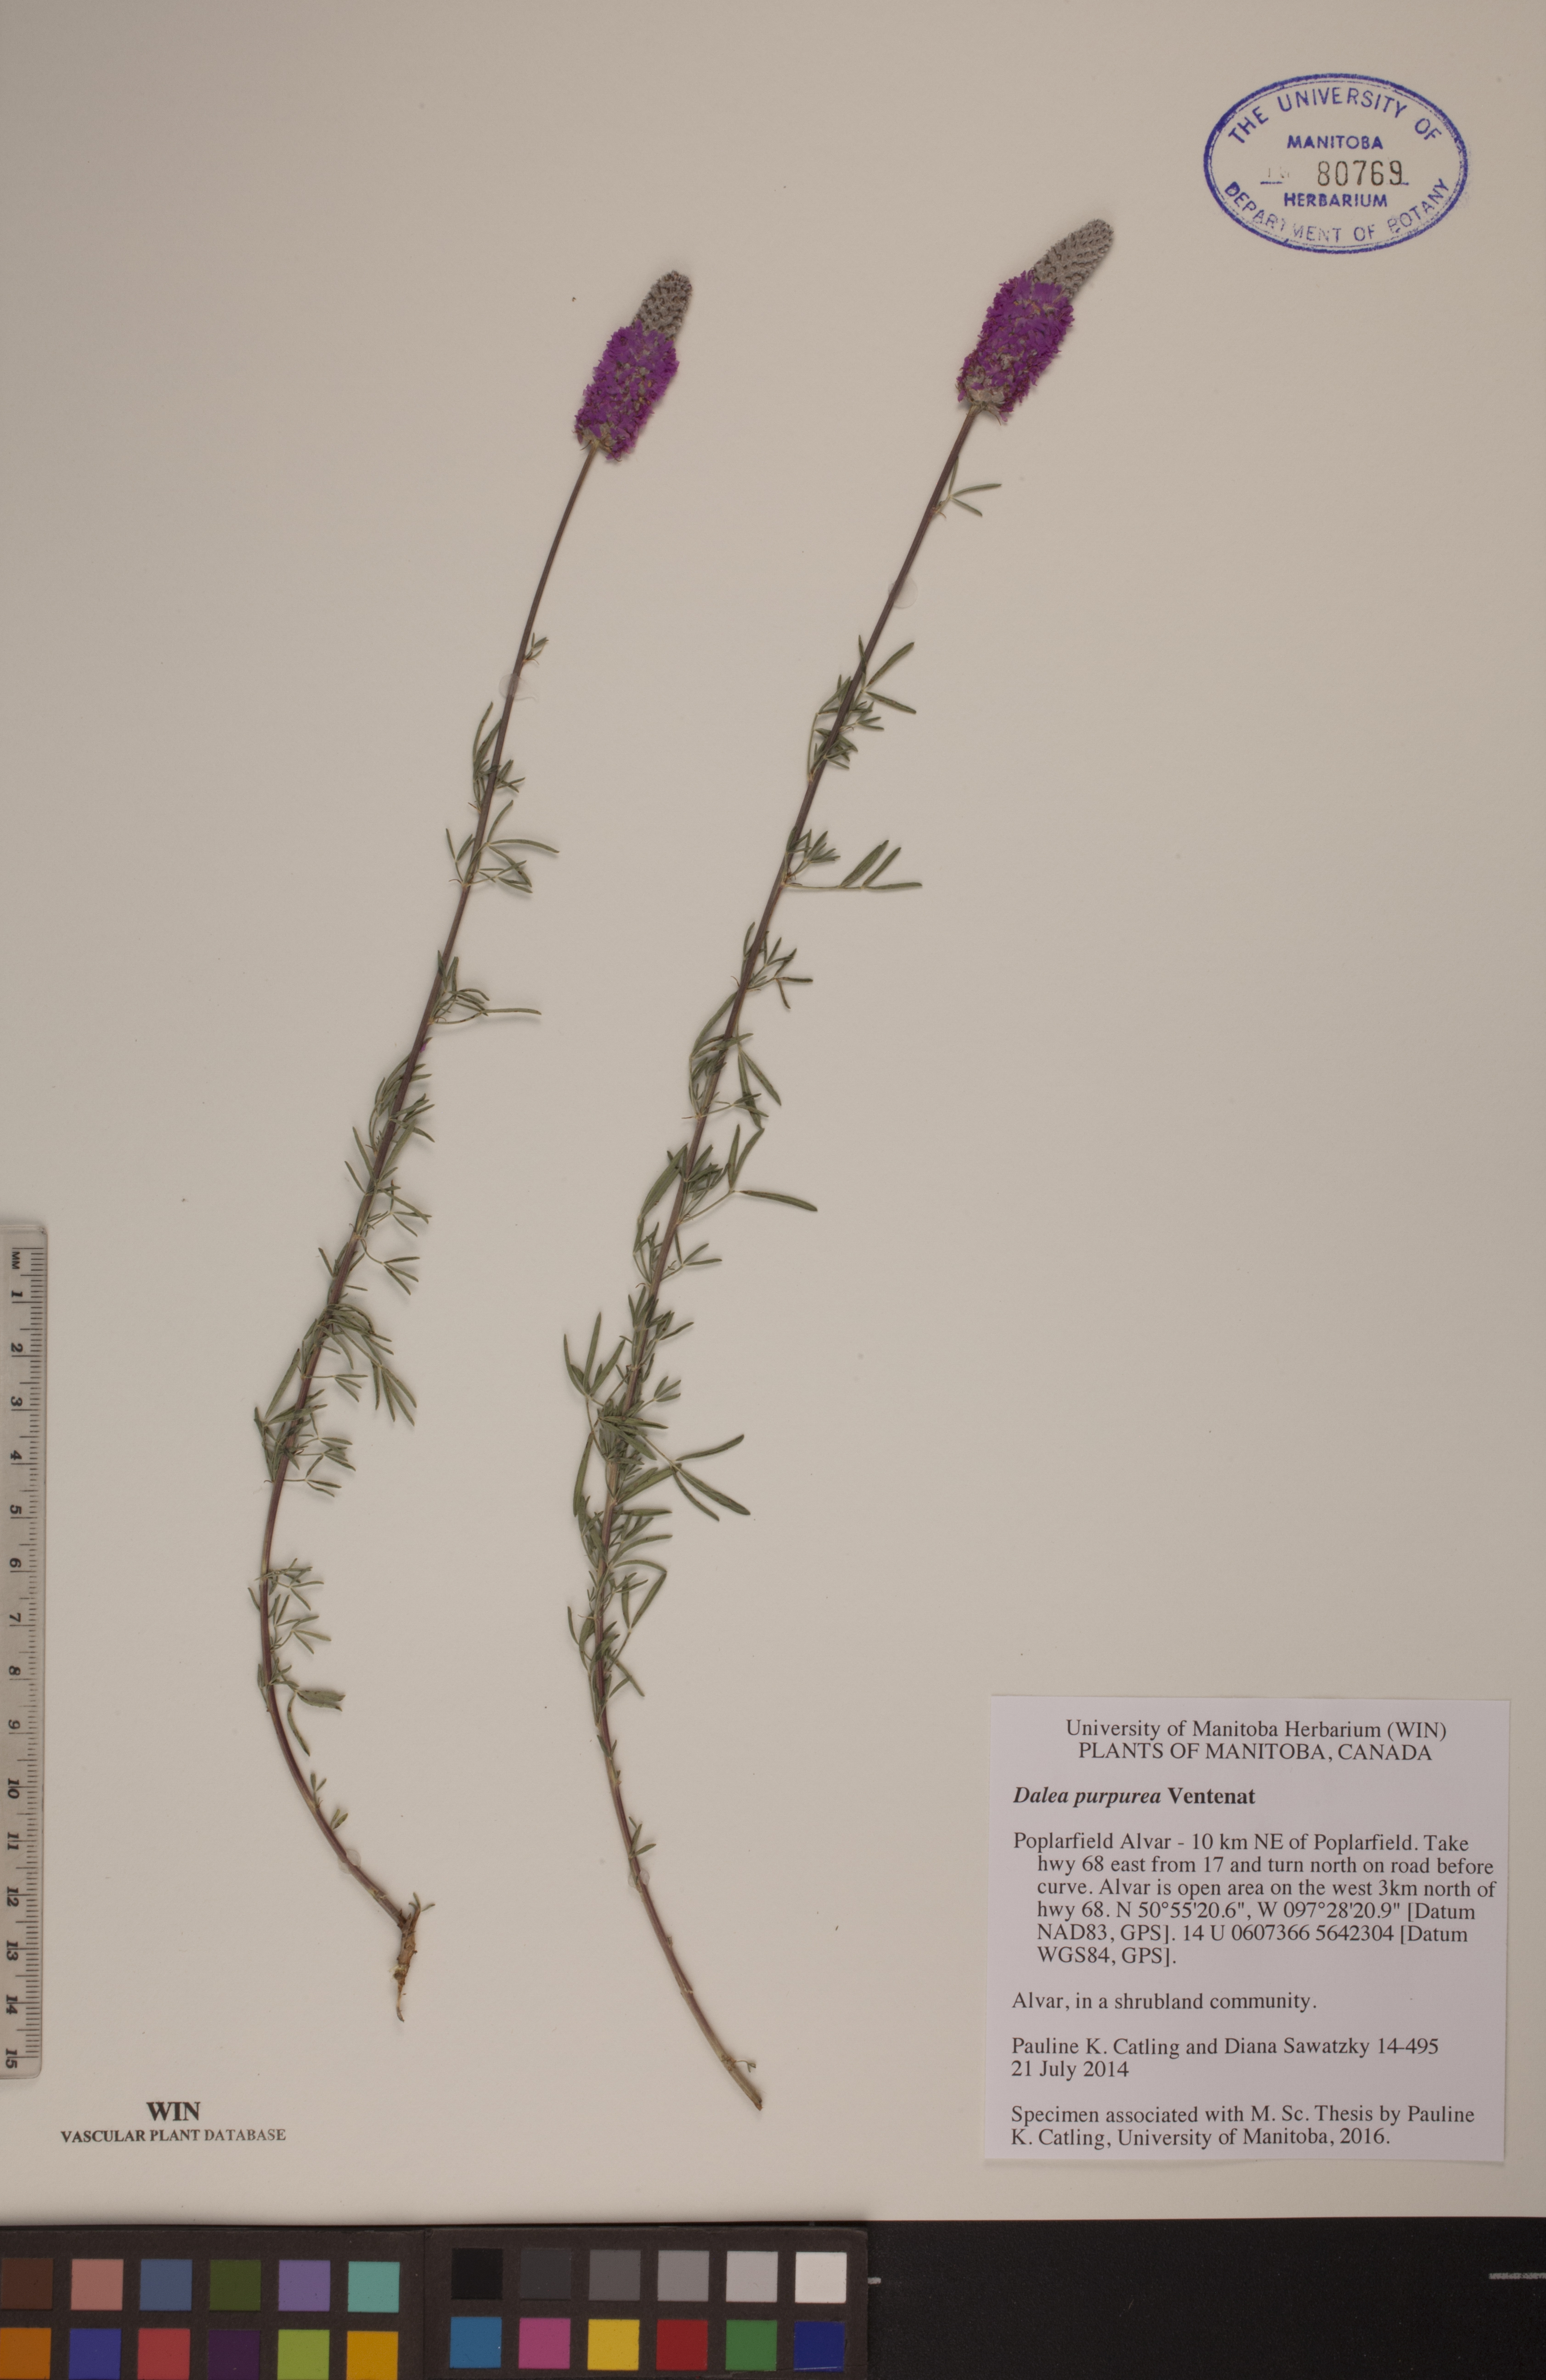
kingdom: Plantae
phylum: Tracheophyta
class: Magnoliopsida
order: Fabales
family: Fabaceae
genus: Dalea
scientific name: Dalea purpurea
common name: Purple prairie-clover
